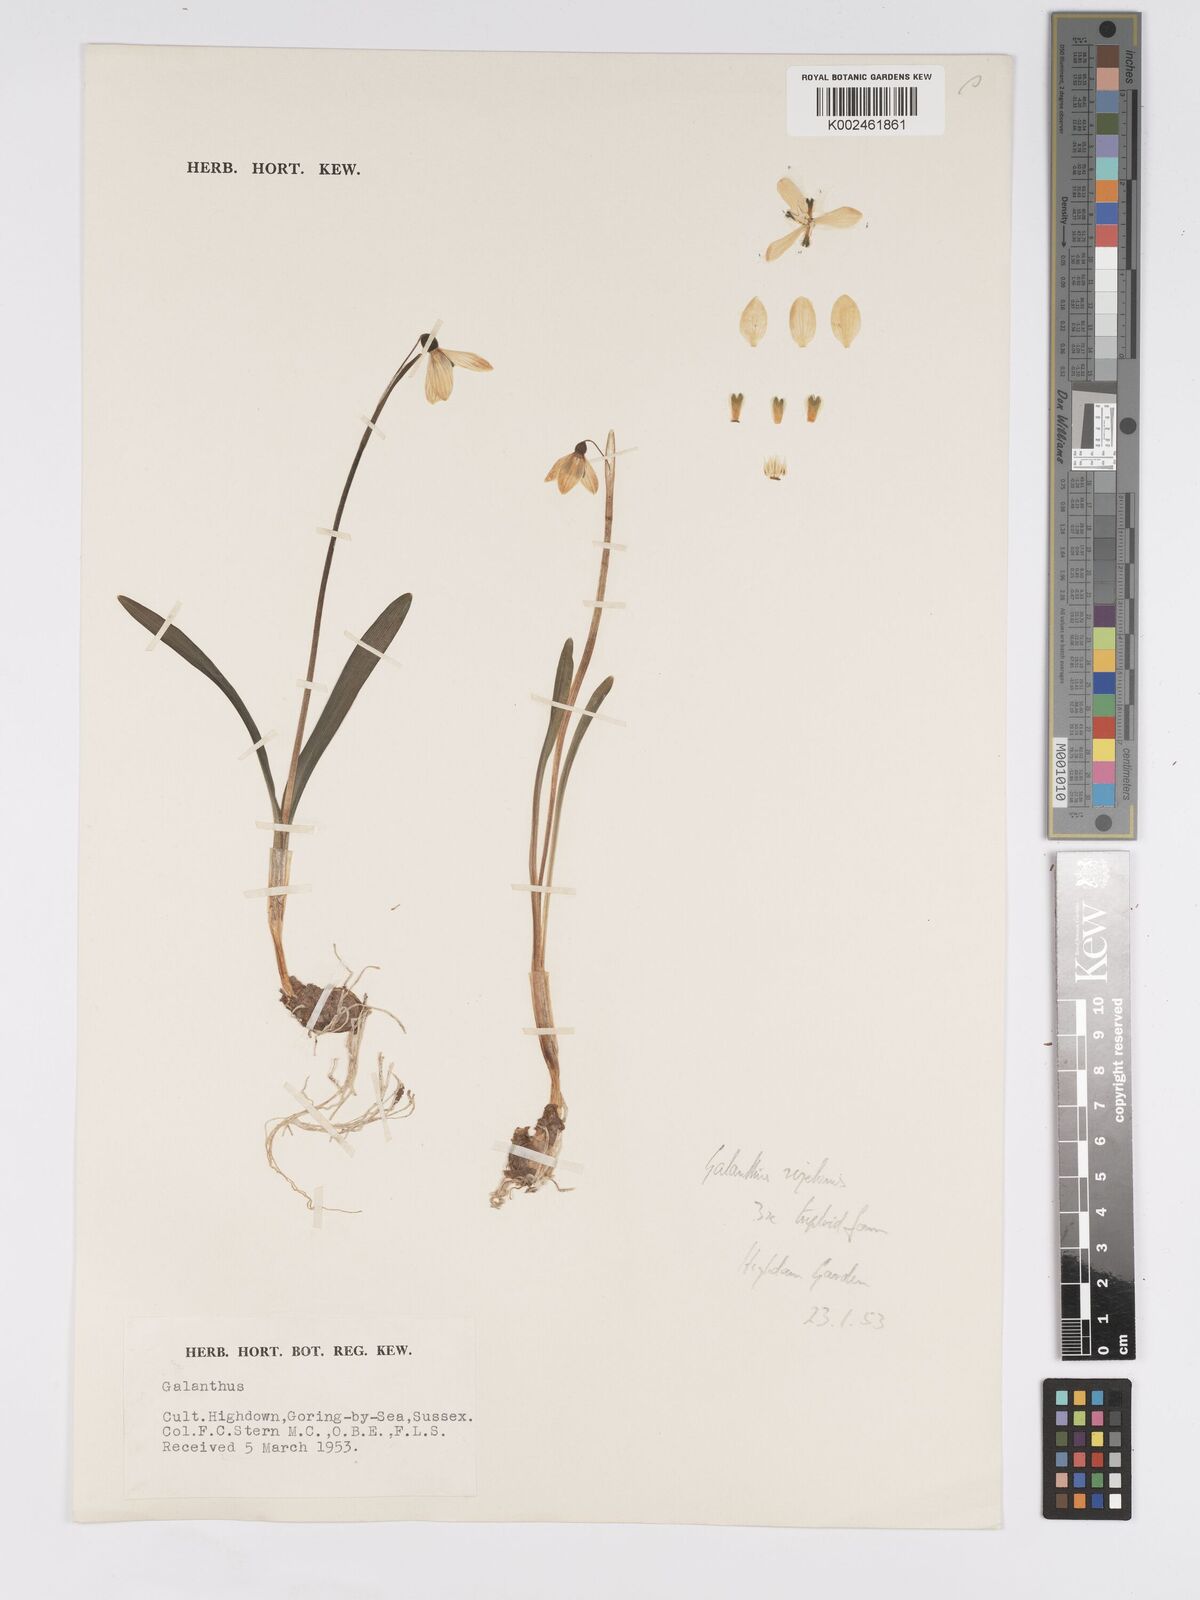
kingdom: Plantae
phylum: Tracheophyta
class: Liliopsida
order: Asparagales
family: Amaryllidaceae
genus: Galanthus
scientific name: Galanthus rizehensis
